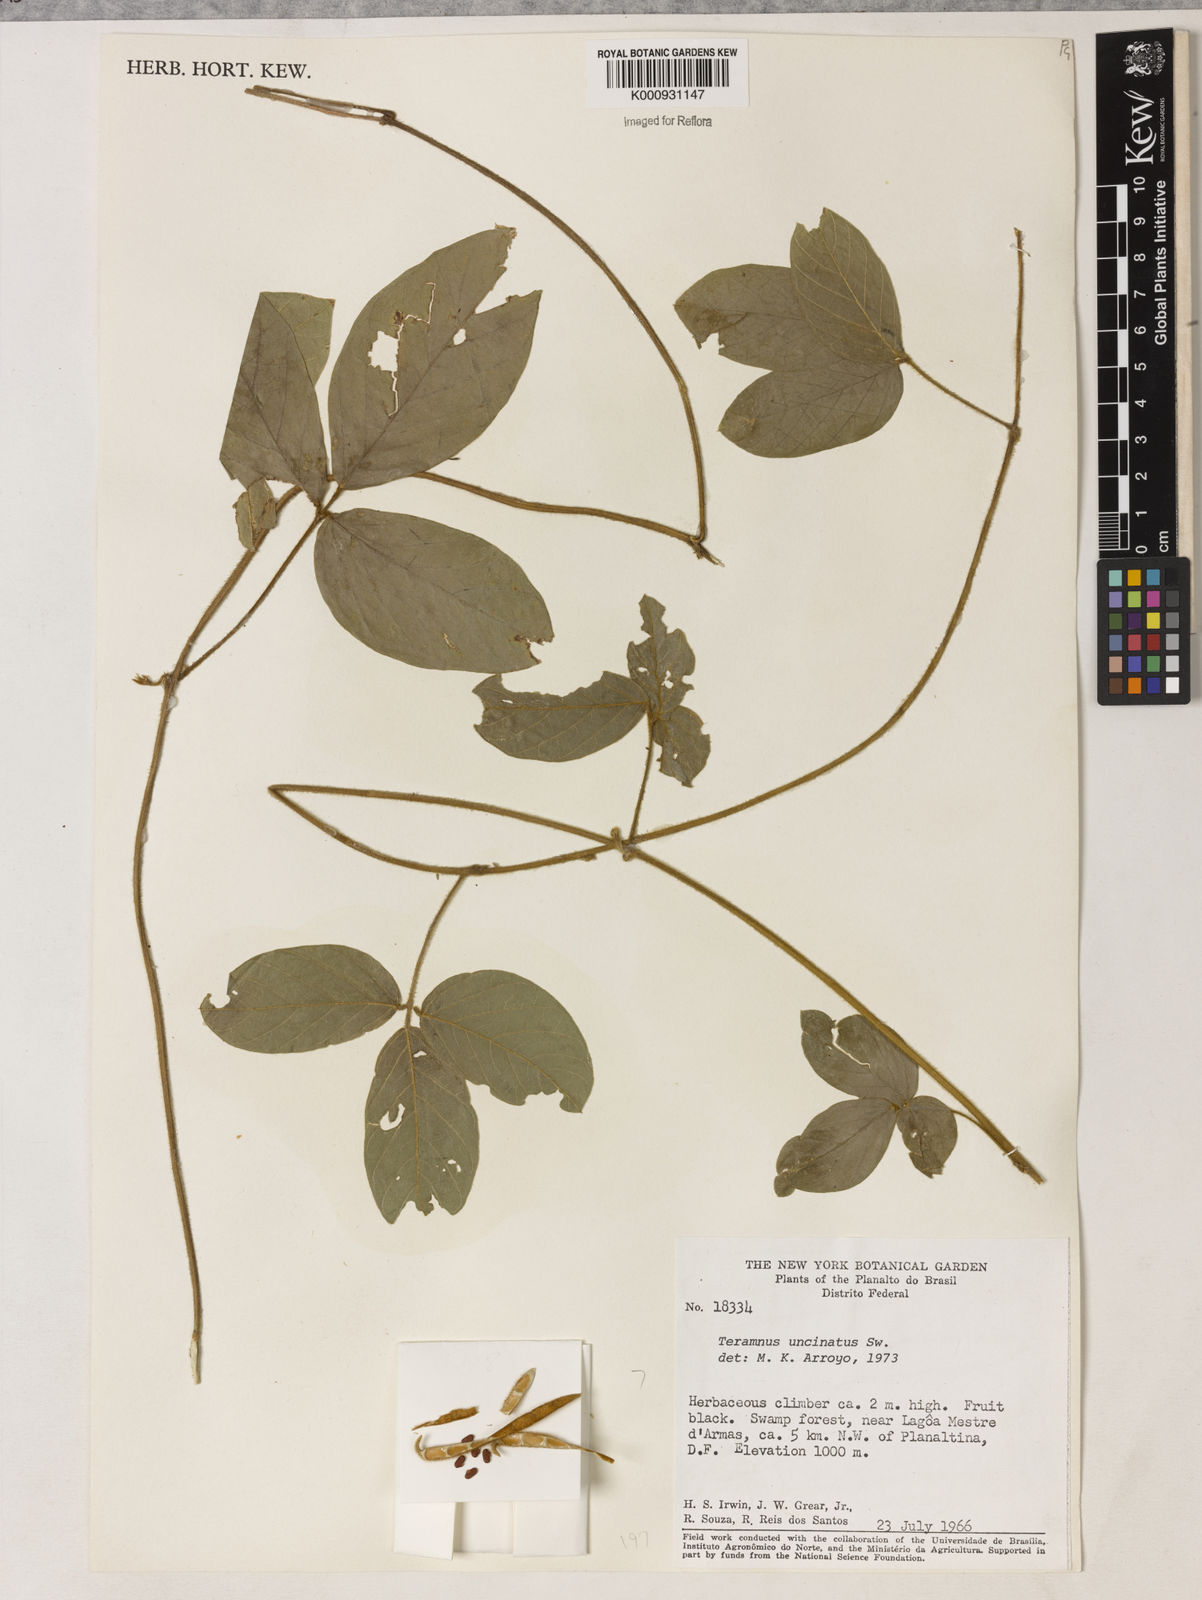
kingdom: Plantae
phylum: Tracheophyta
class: Magnoliopsida
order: Fabales
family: Fabaceae
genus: Teramnus
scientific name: Teramnus uncinatus
